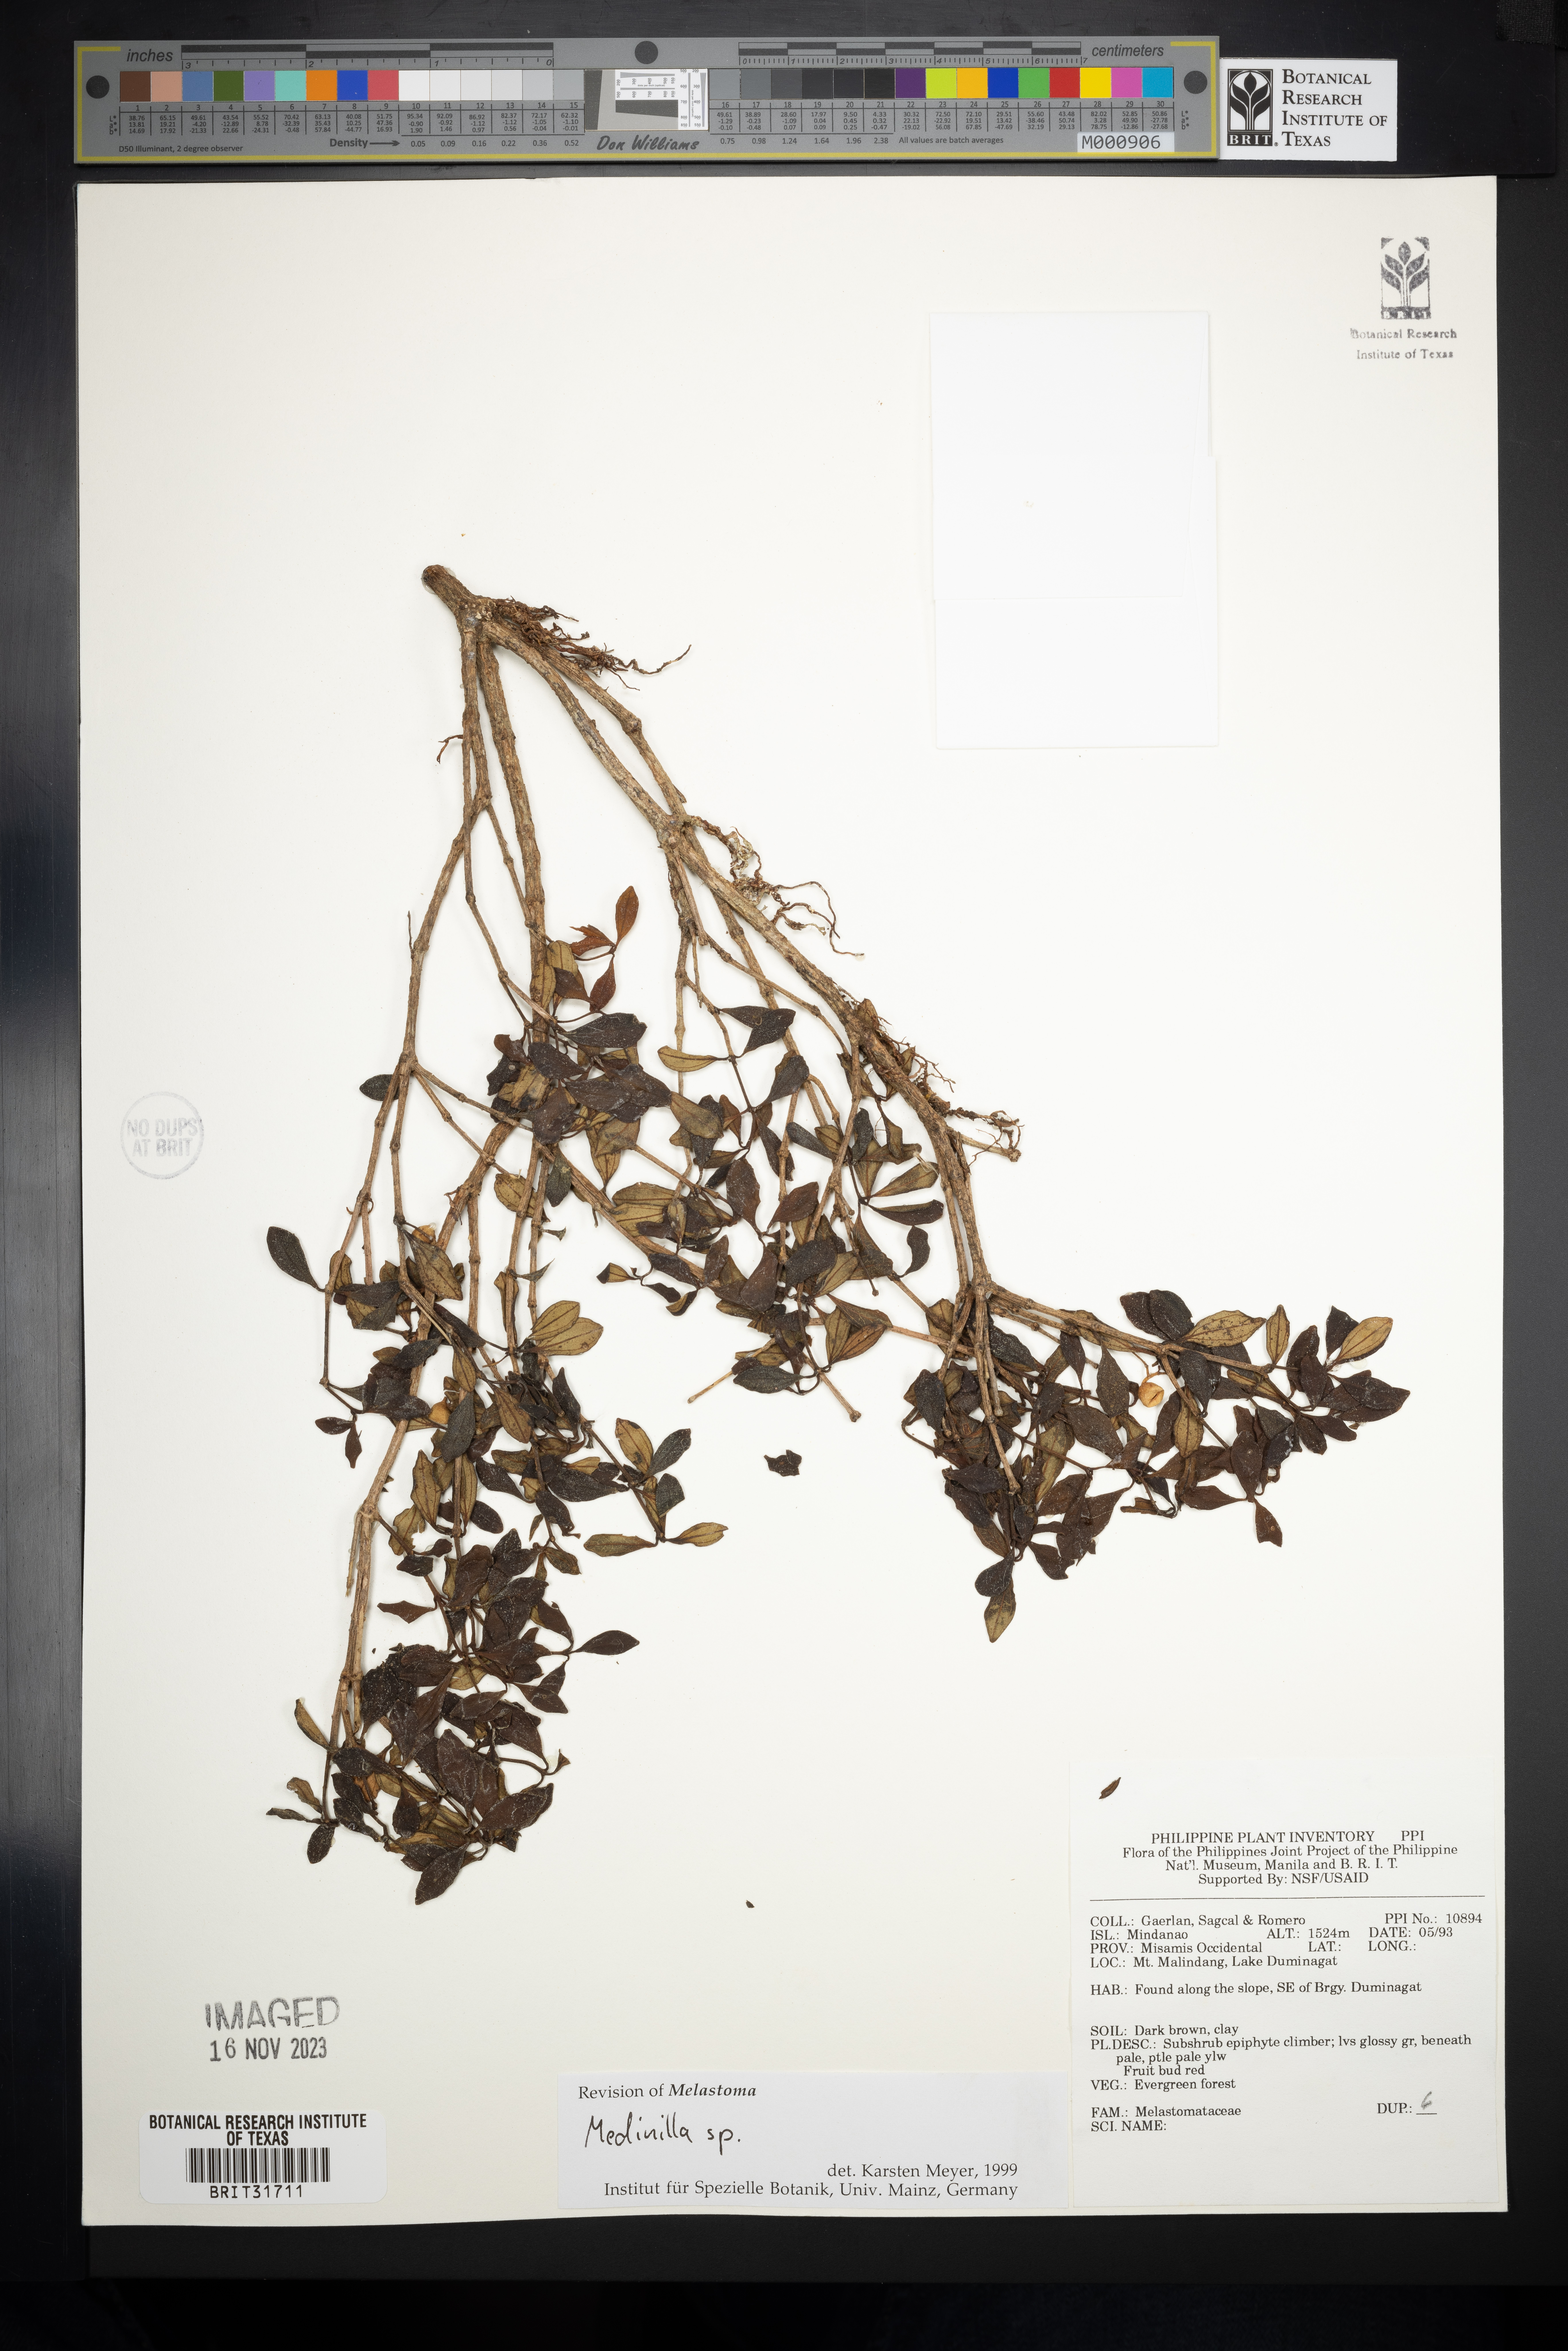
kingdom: Plantae
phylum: Tracheophyta
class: Magnoliopsida
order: Myrtales
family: Melastomataceae
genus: Medinilla
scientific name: Medinilla
